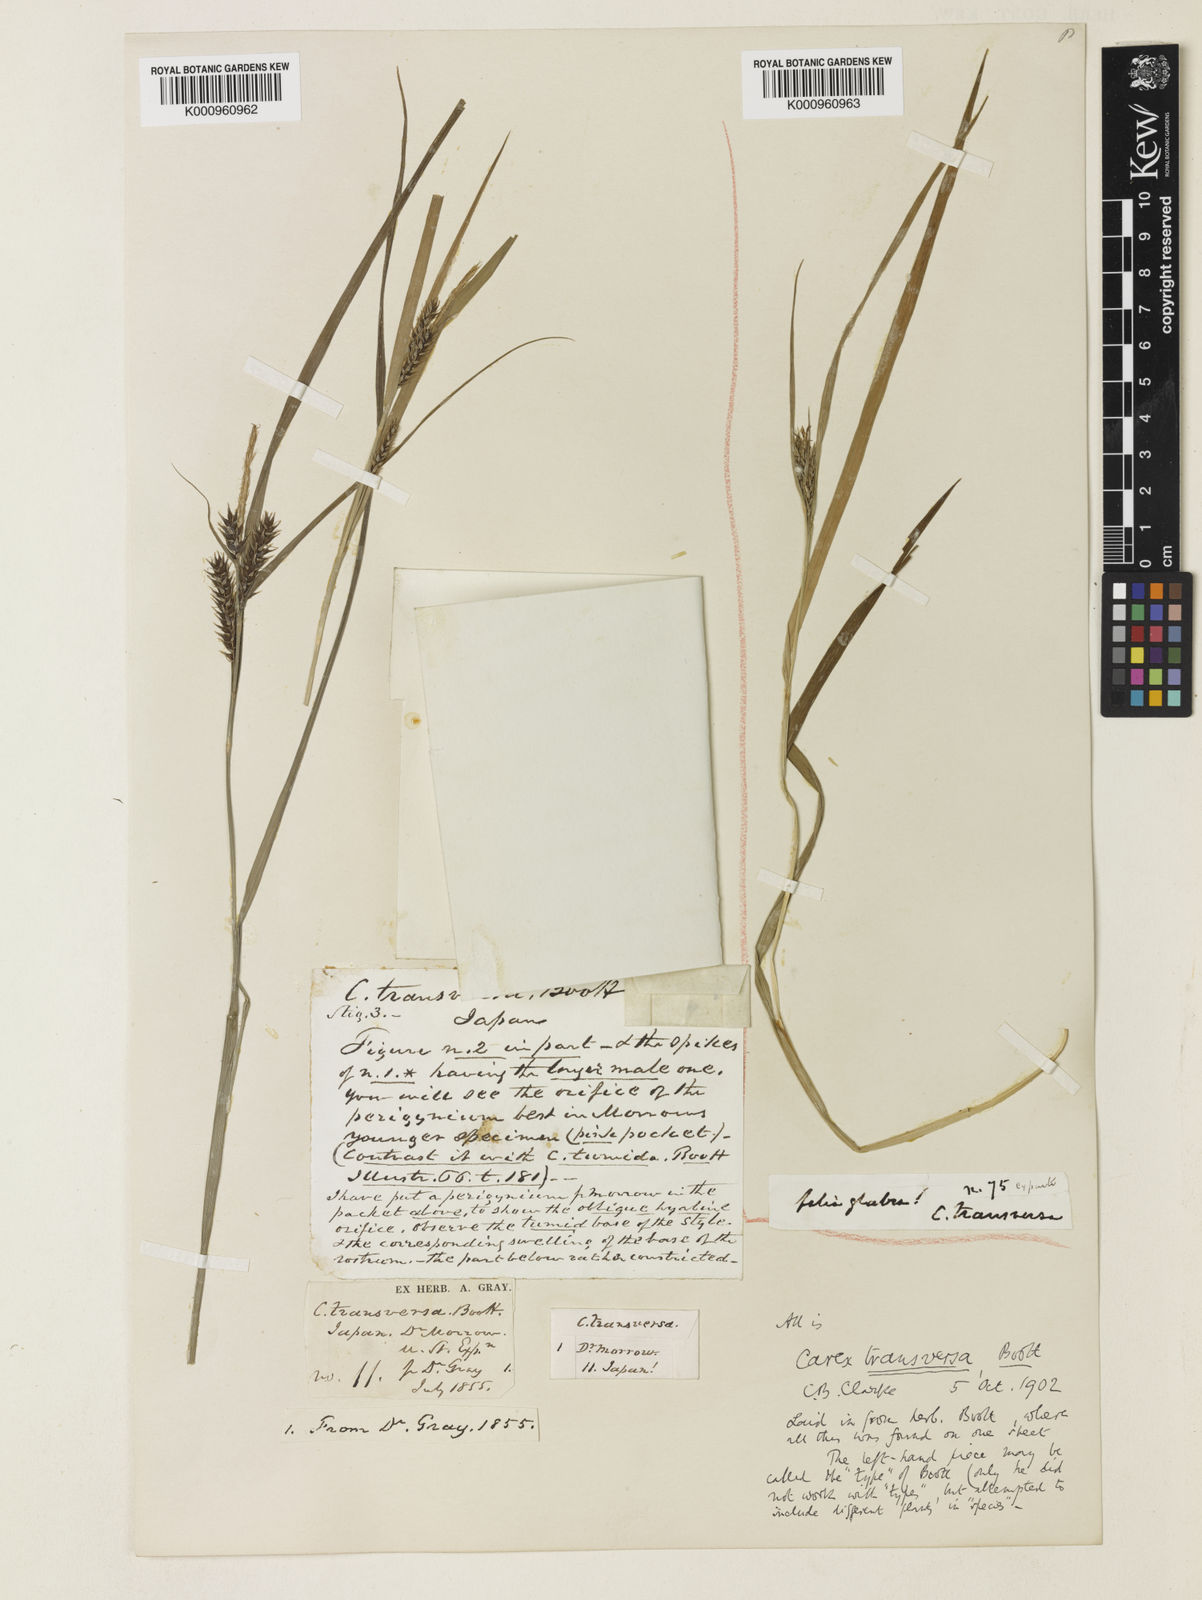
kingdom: Plantae
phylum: Tracheophyta
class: Liliopsida
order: Poales
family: Cyperaceae
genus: Carex
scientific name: Carex brownii
